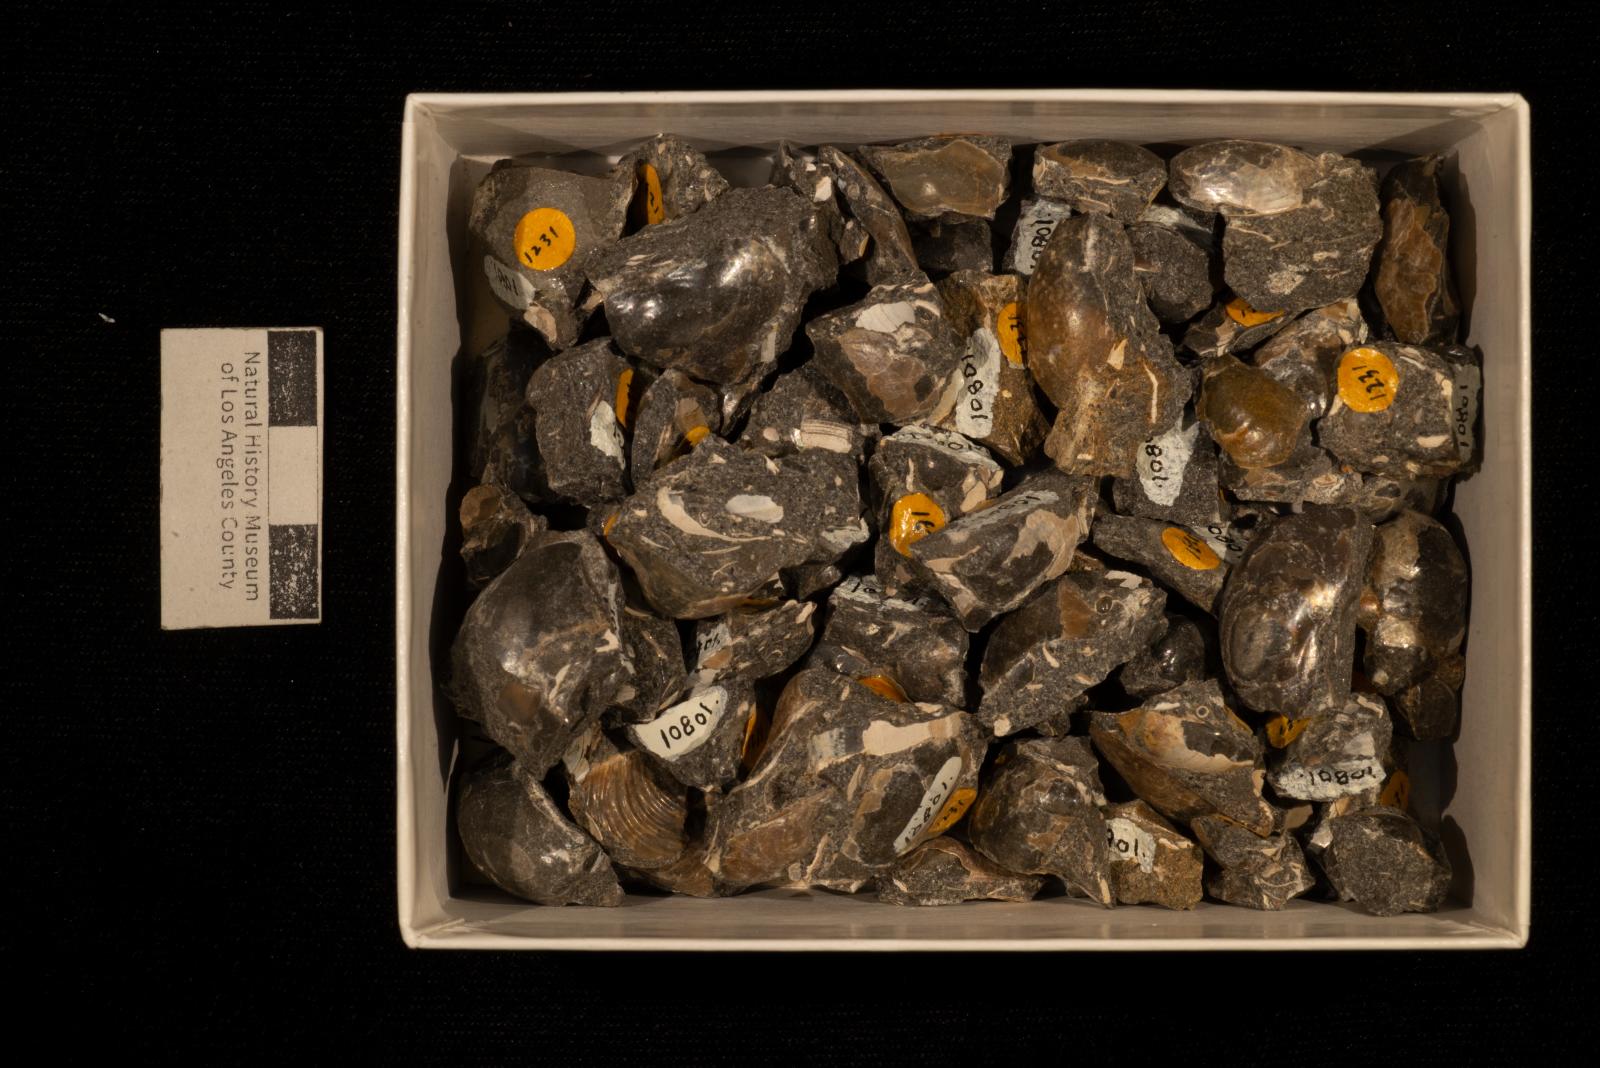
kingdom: Animalia
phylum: Mollusca
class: Bivalvia
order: Ostreida
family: Pteriidae
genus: Pteria
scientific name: Pteria pellucida
